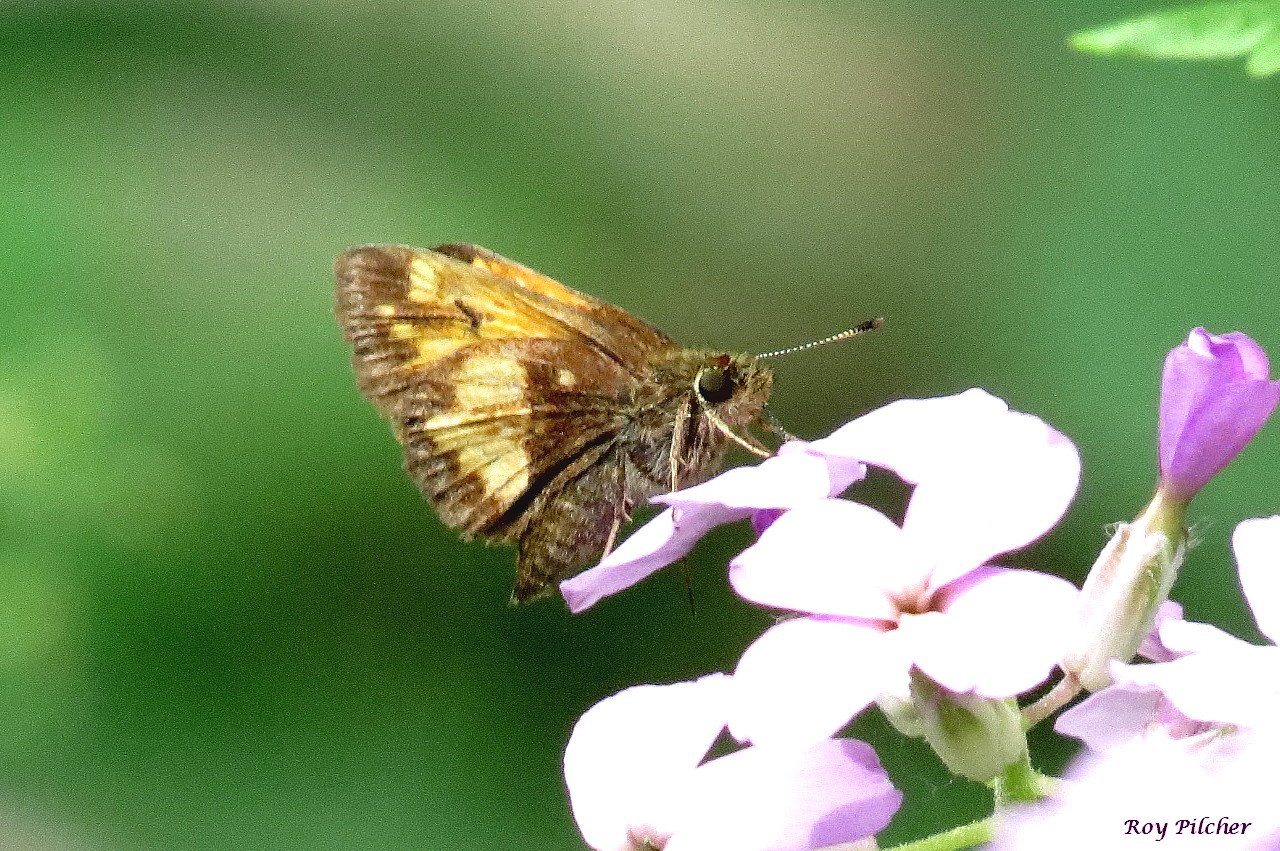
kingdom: Animalia
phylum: Arthropoda
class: Insecta
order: Lepidoptera
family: Hesperiidae
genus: Lon
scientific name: Lon hobomok
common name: Hobomok Skipper
